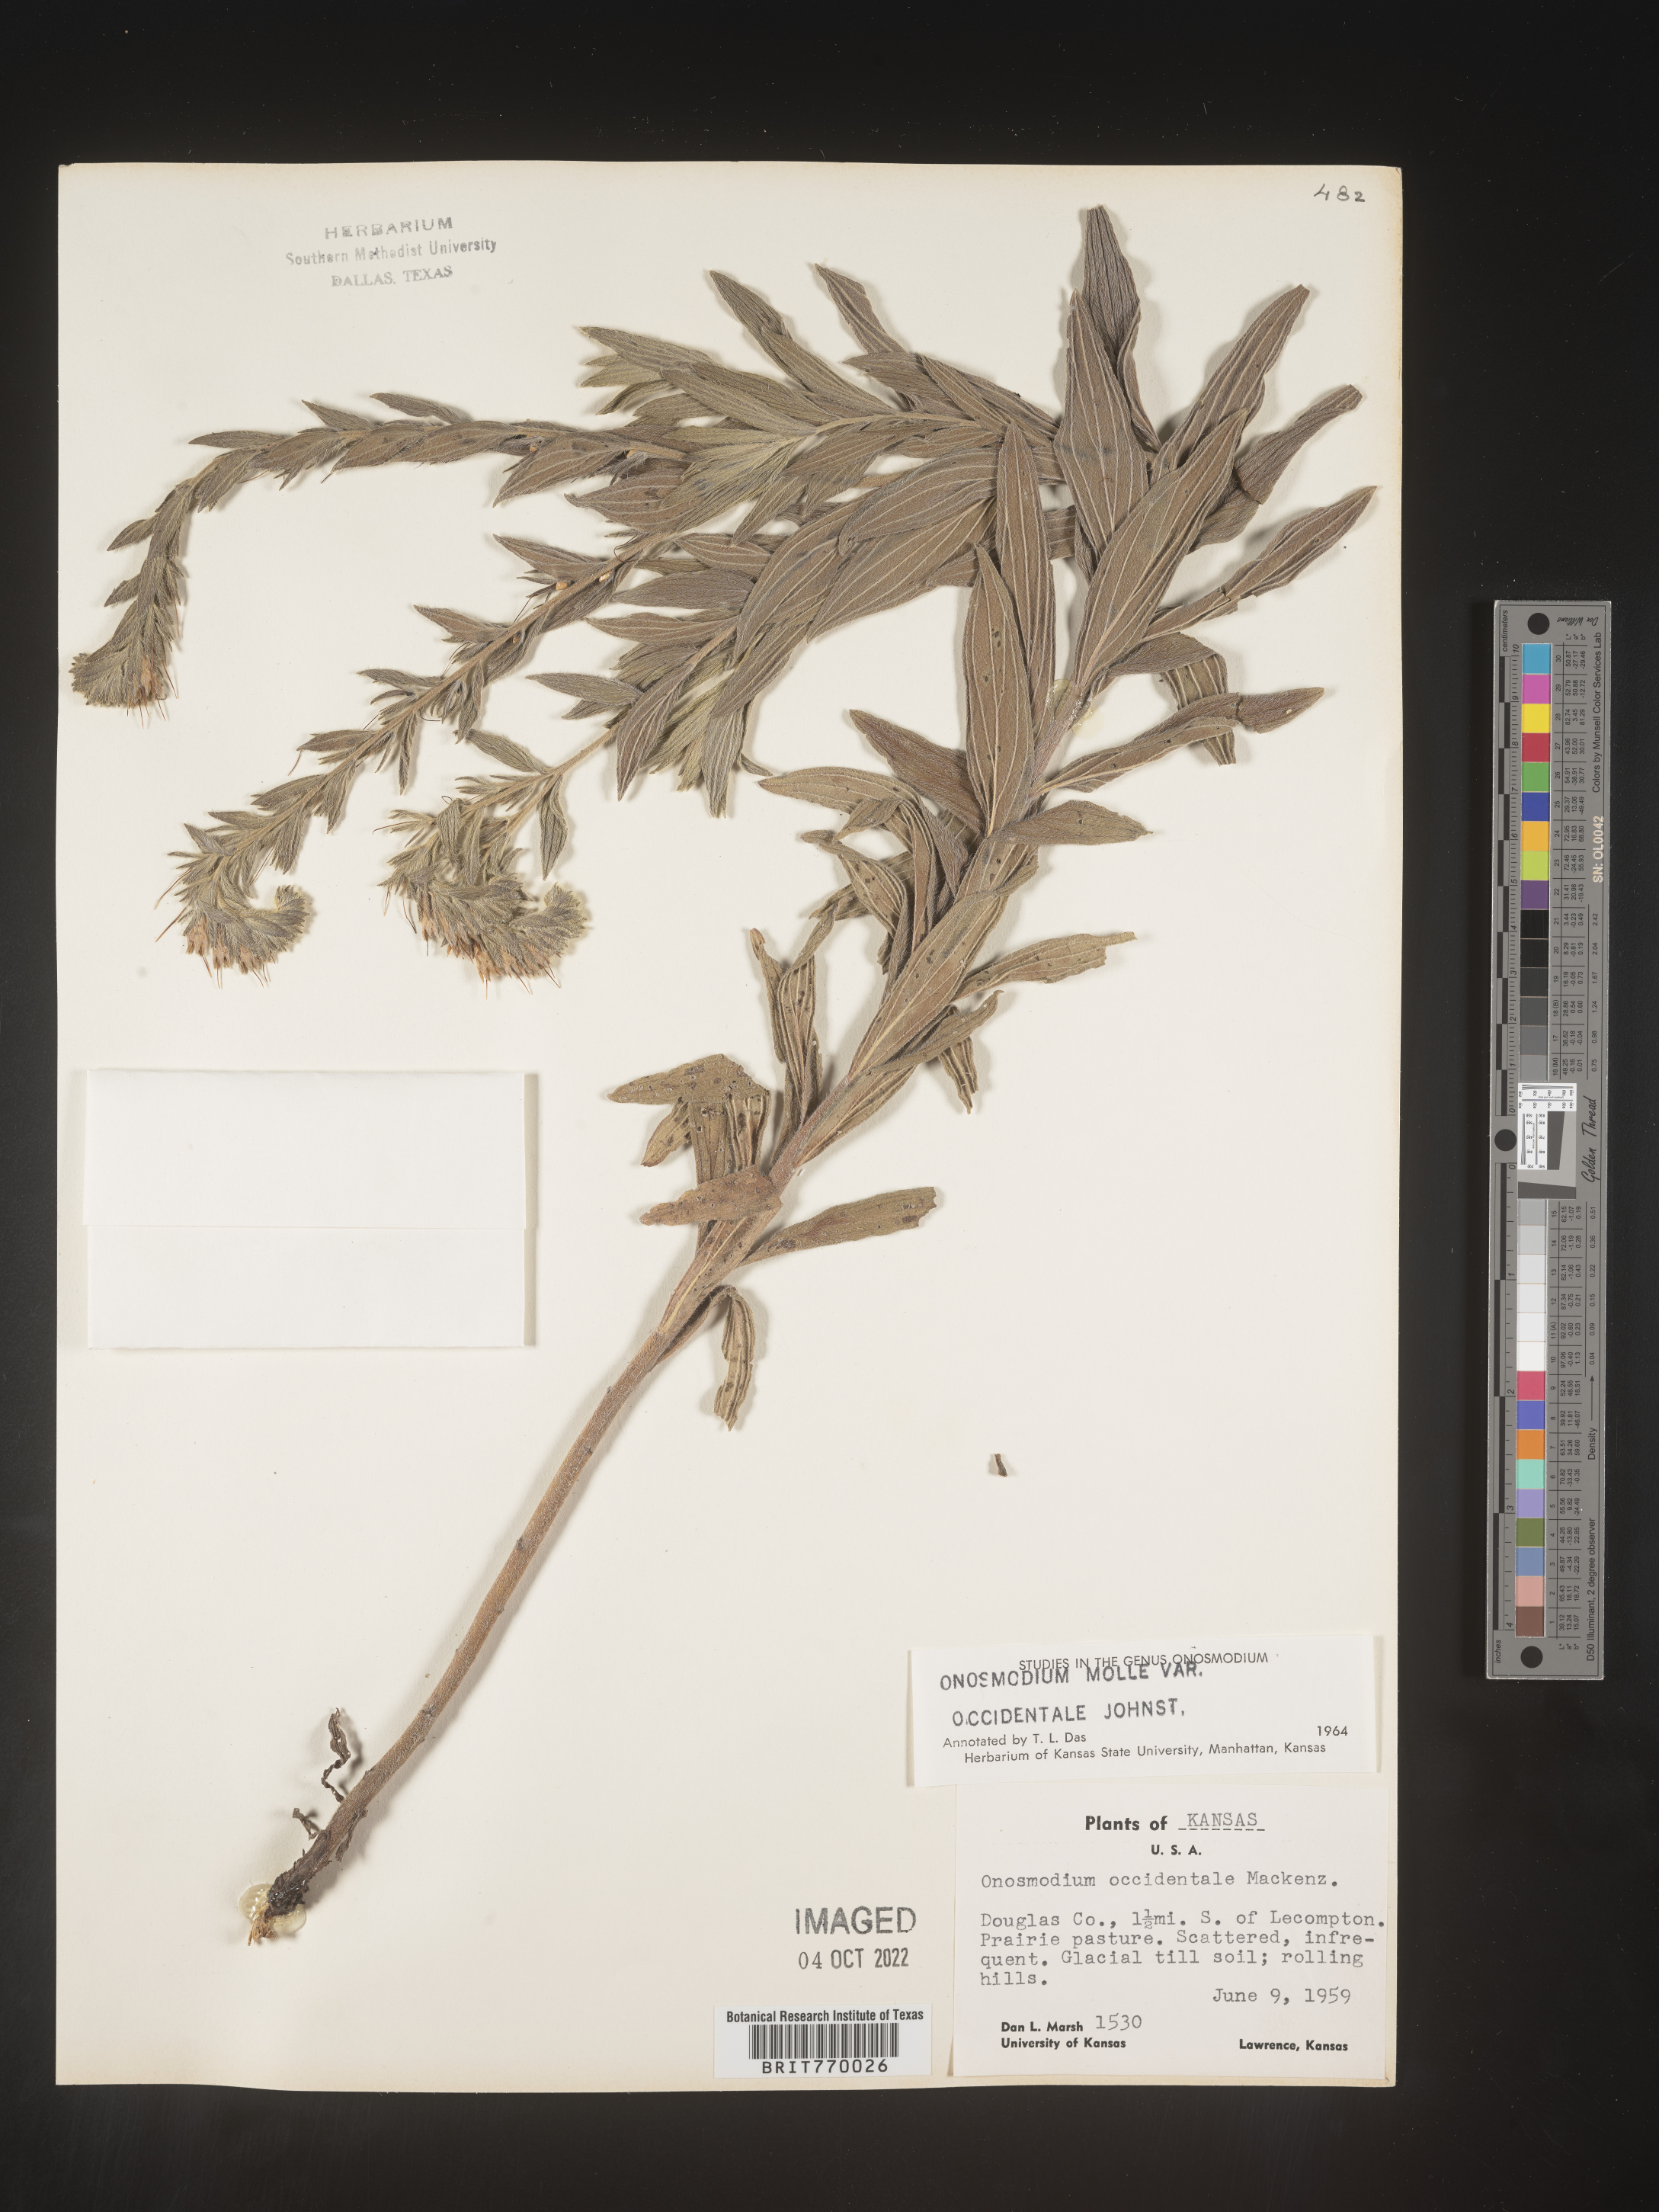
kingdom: Plantae
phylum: Tracheophyta
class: Magnoliopsida
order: Boraginales
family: Boraginaceae
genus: Lithospermum
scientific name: Lithospermum occidentale
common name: Western false gromwell
